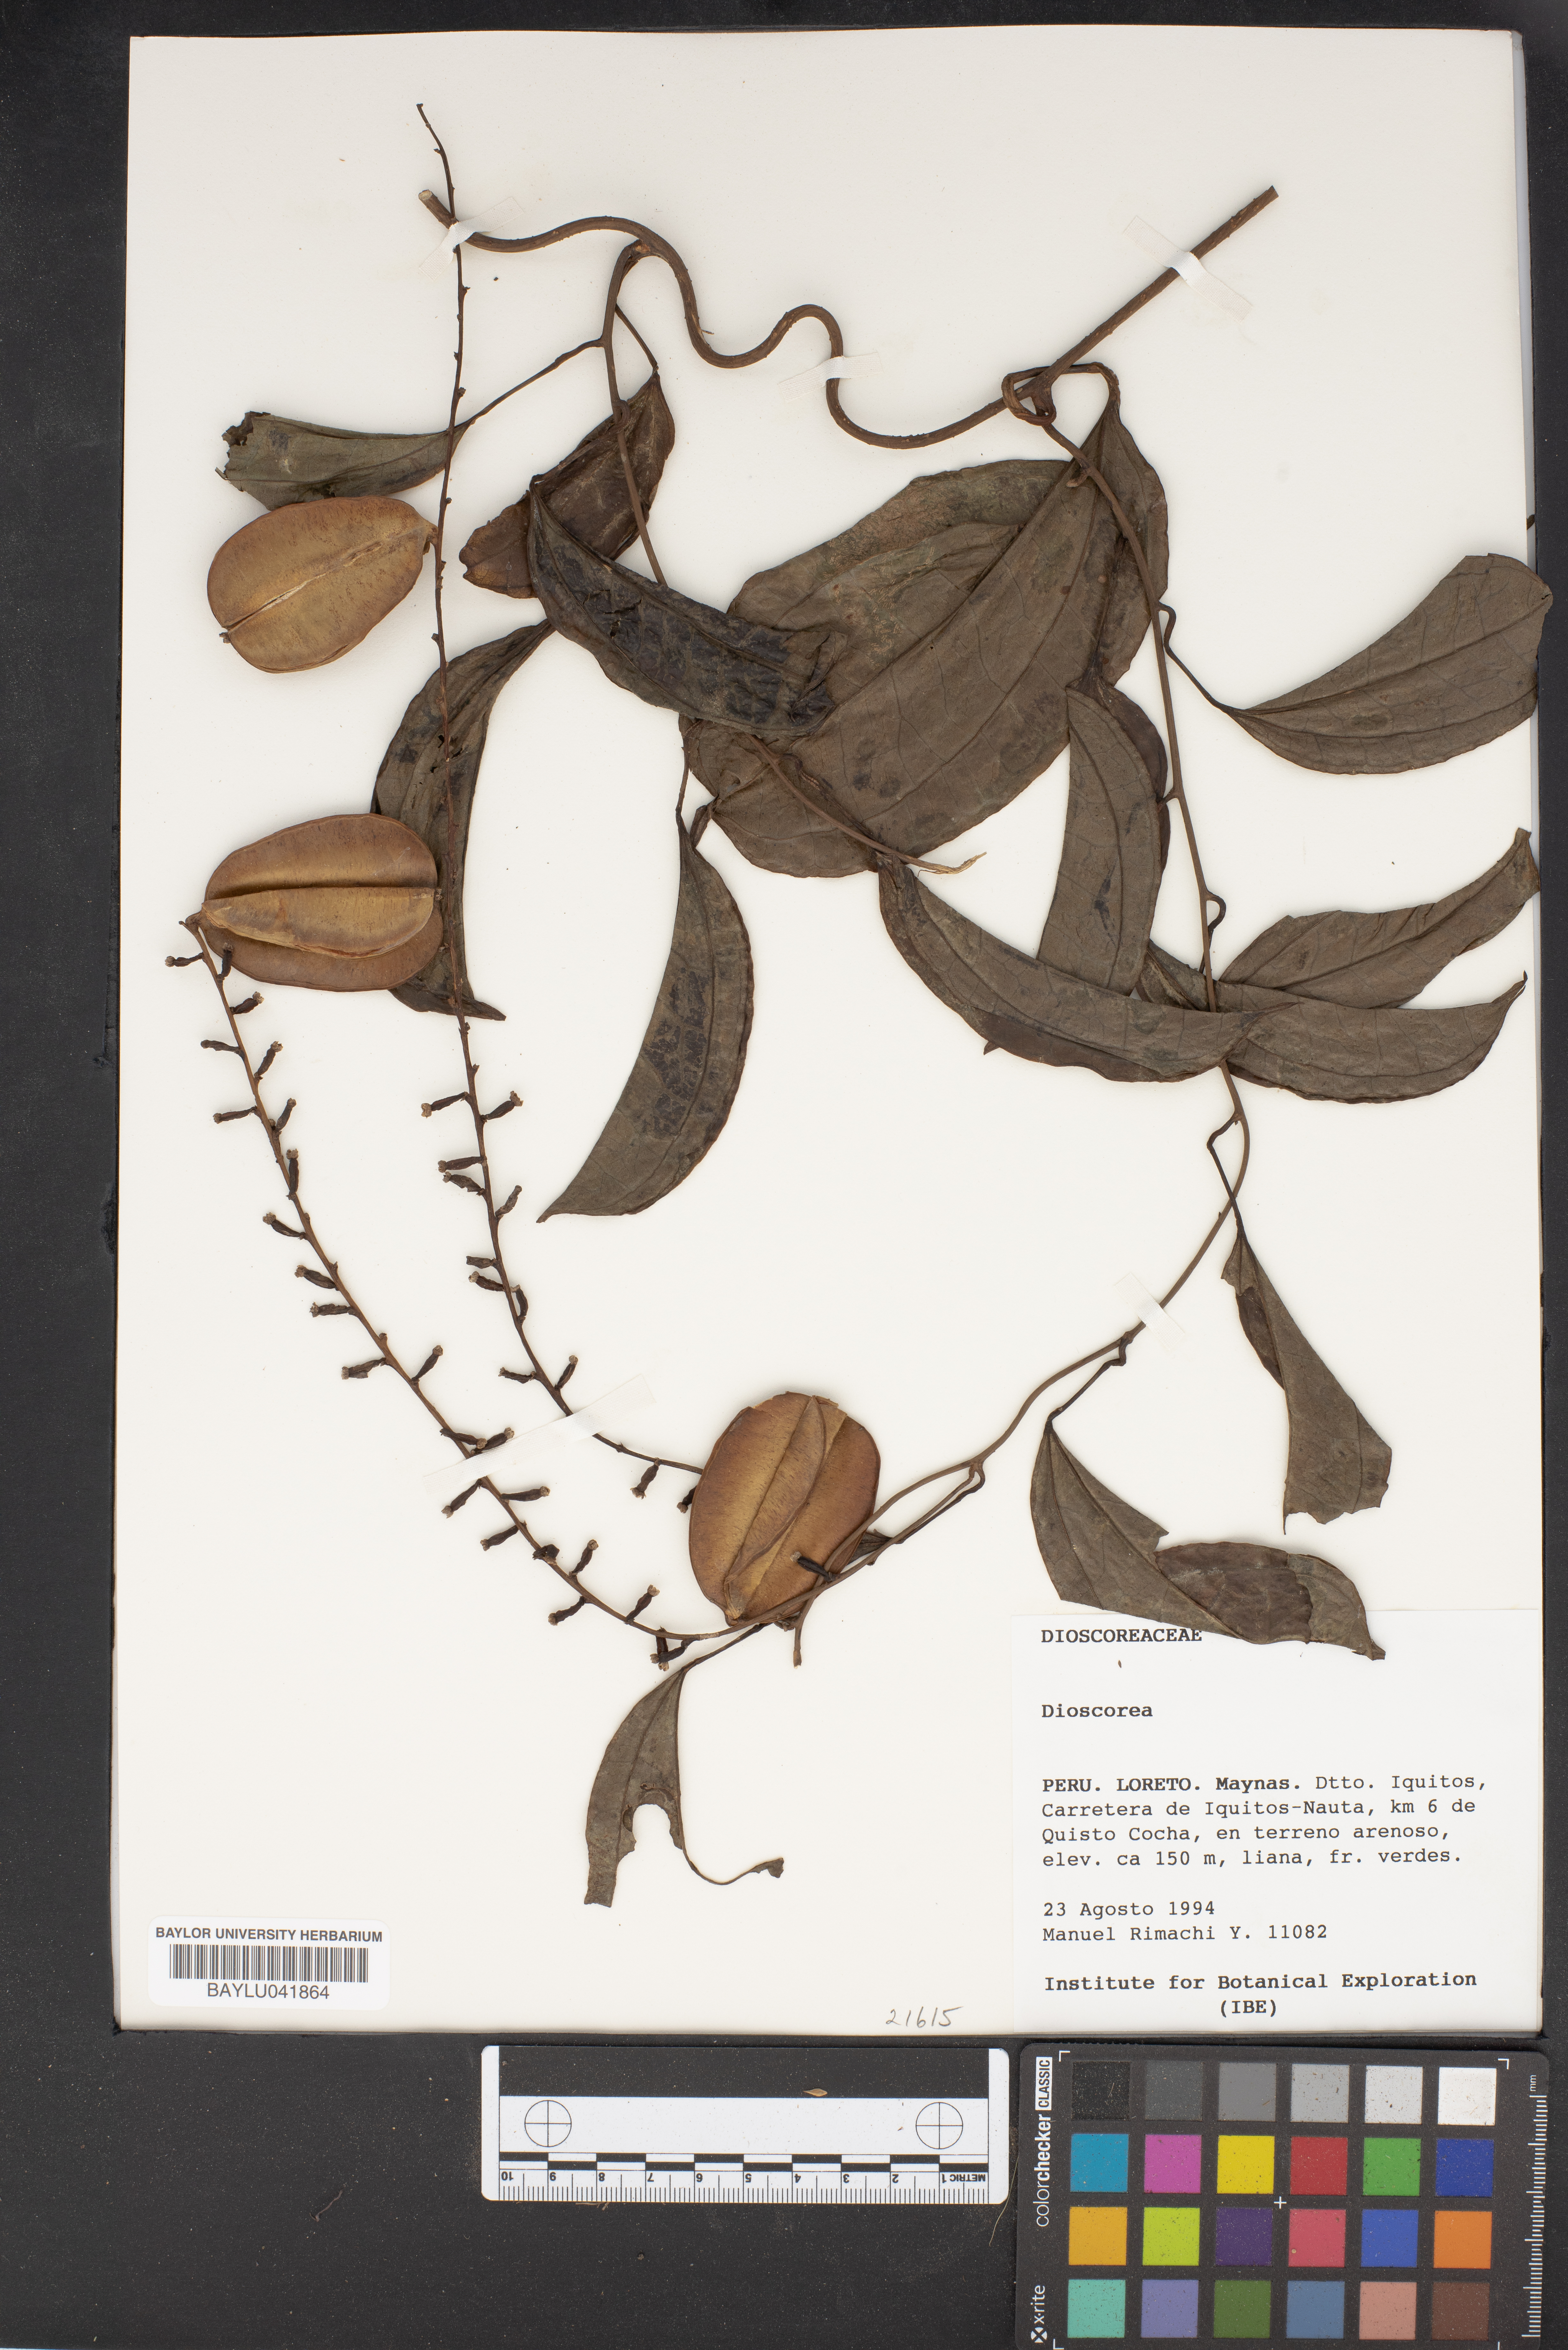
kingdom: Plantae
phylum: Tracheophyta
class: Liliopsida
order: Dioscoreales
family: Dioscoreaceae
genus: Dioscorea
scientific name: Dioscorea
